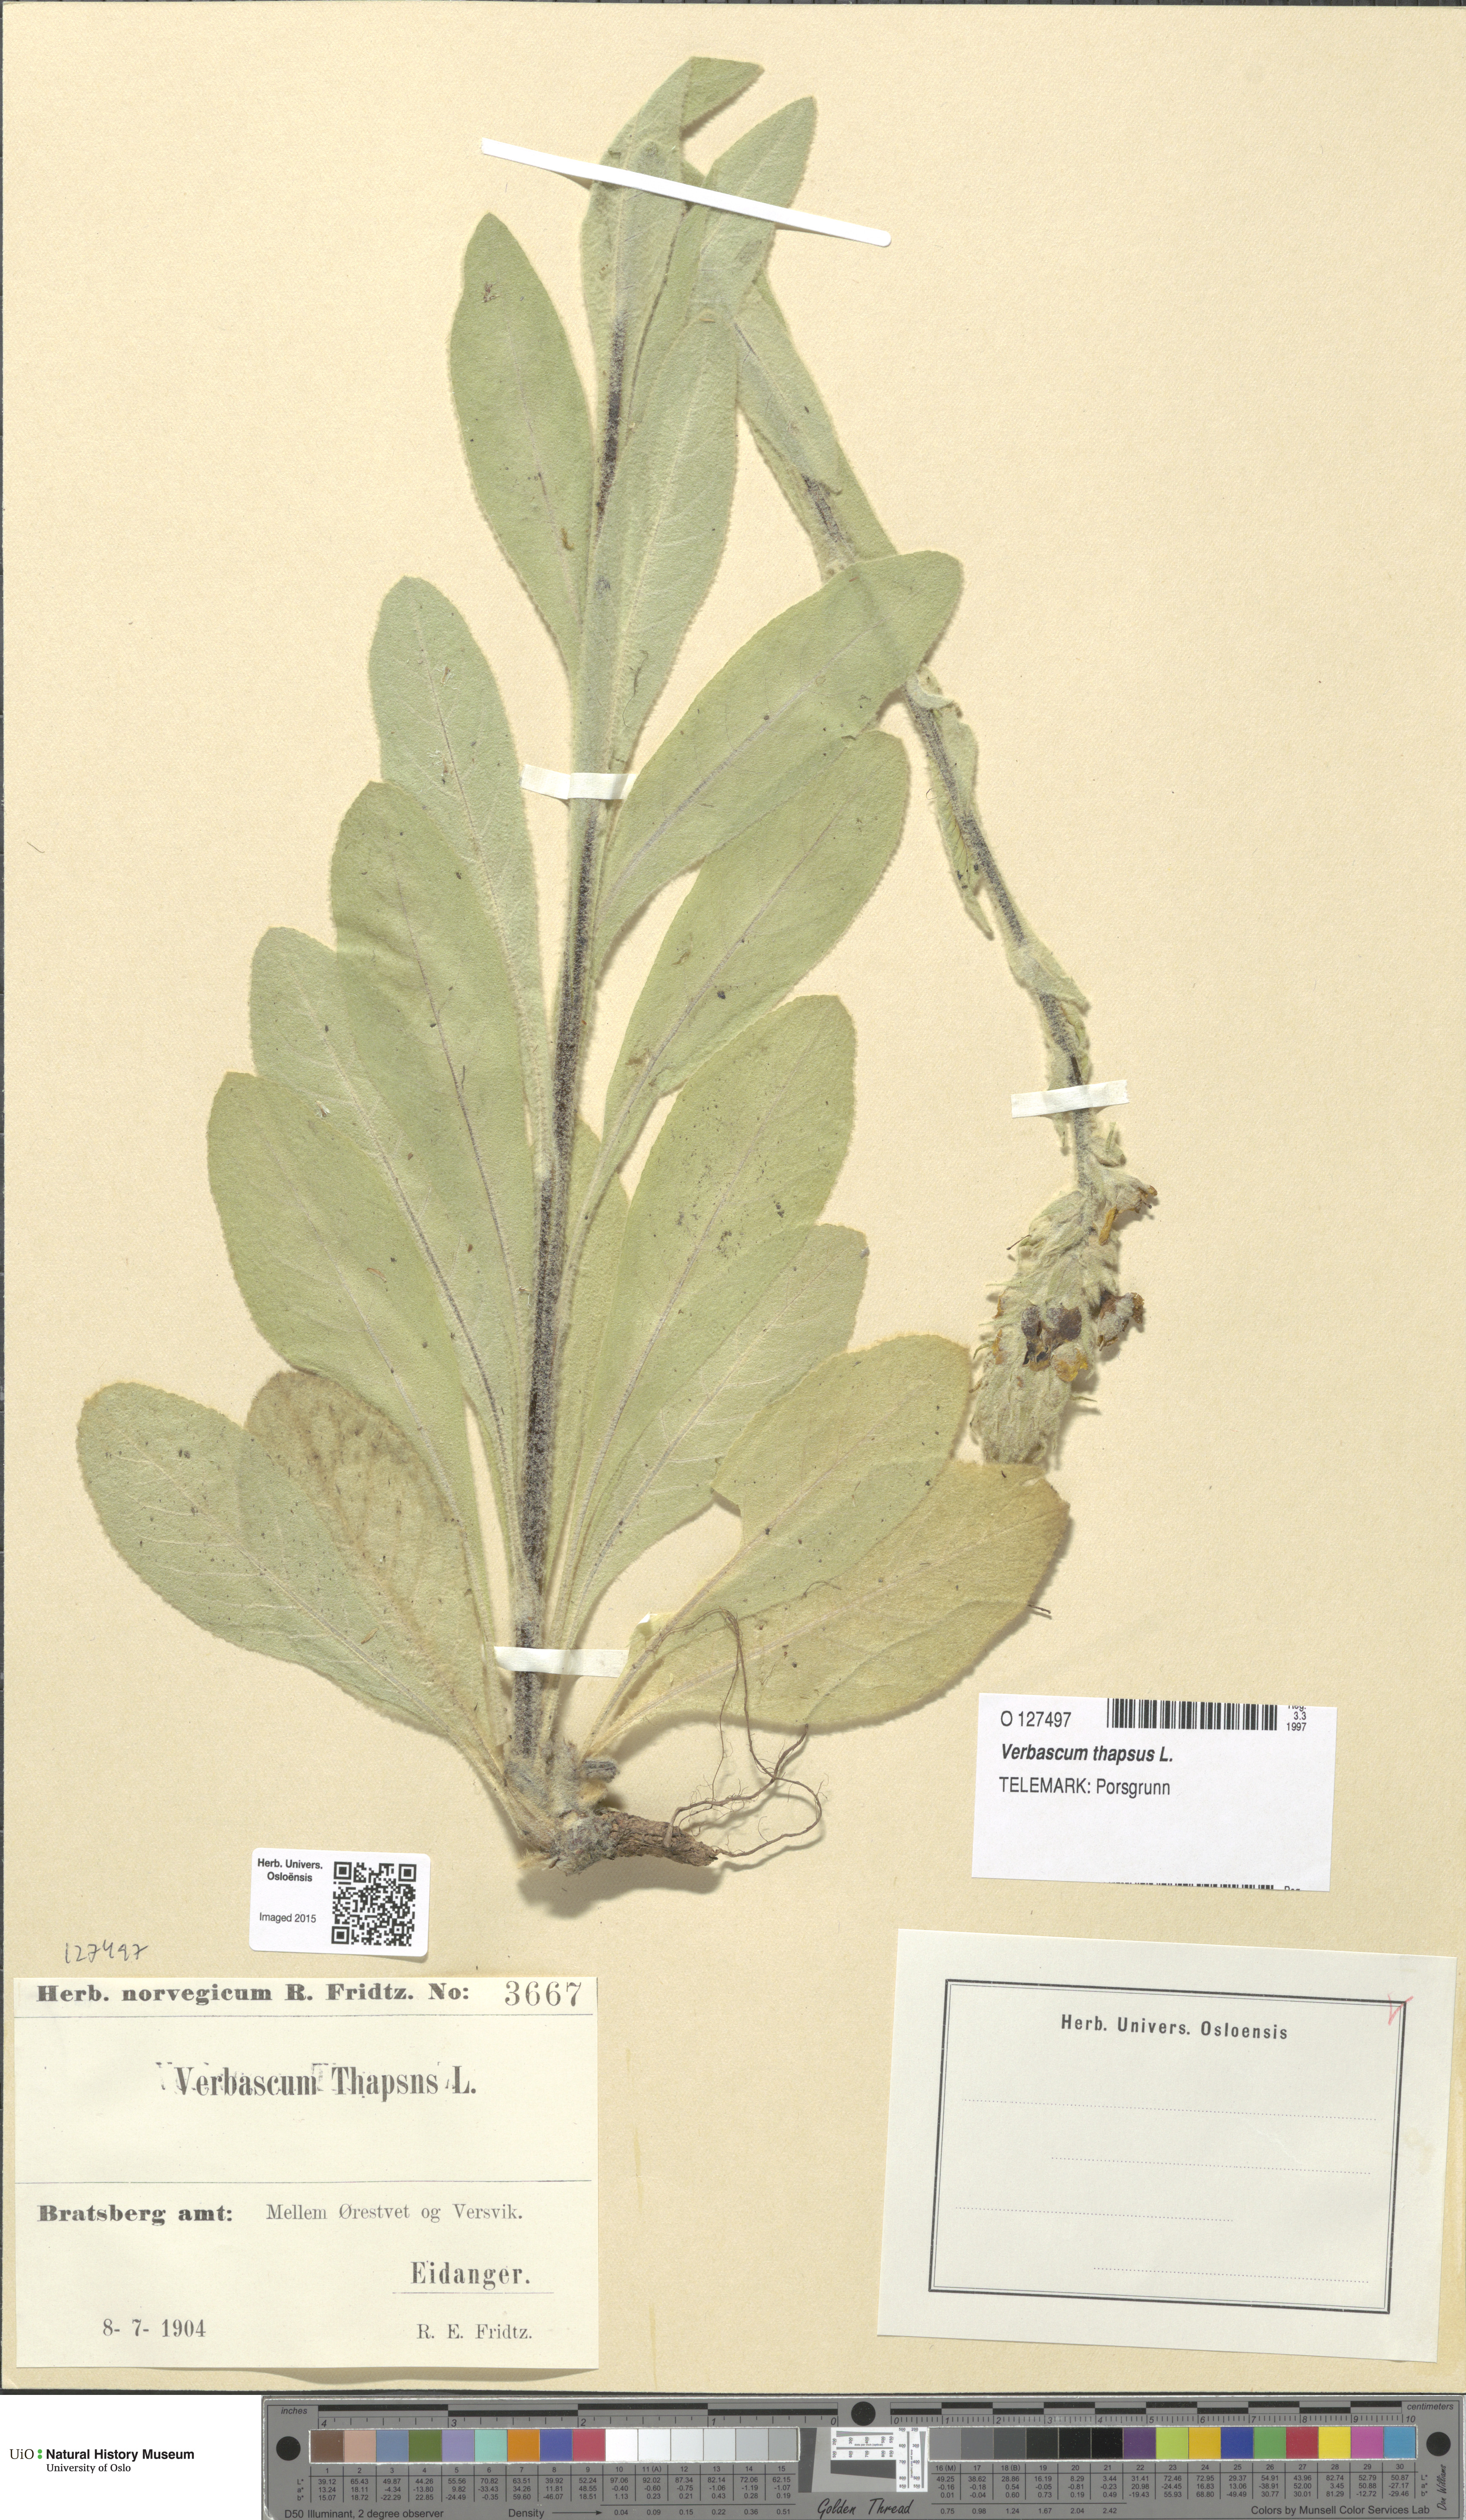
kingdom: Plantae
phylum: Tracheophyta
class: Magnoliopsida
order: Lamiales
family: Scrophulariaceae
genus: Verbascum
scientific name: Verbascum thapsus
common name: Common mullein
